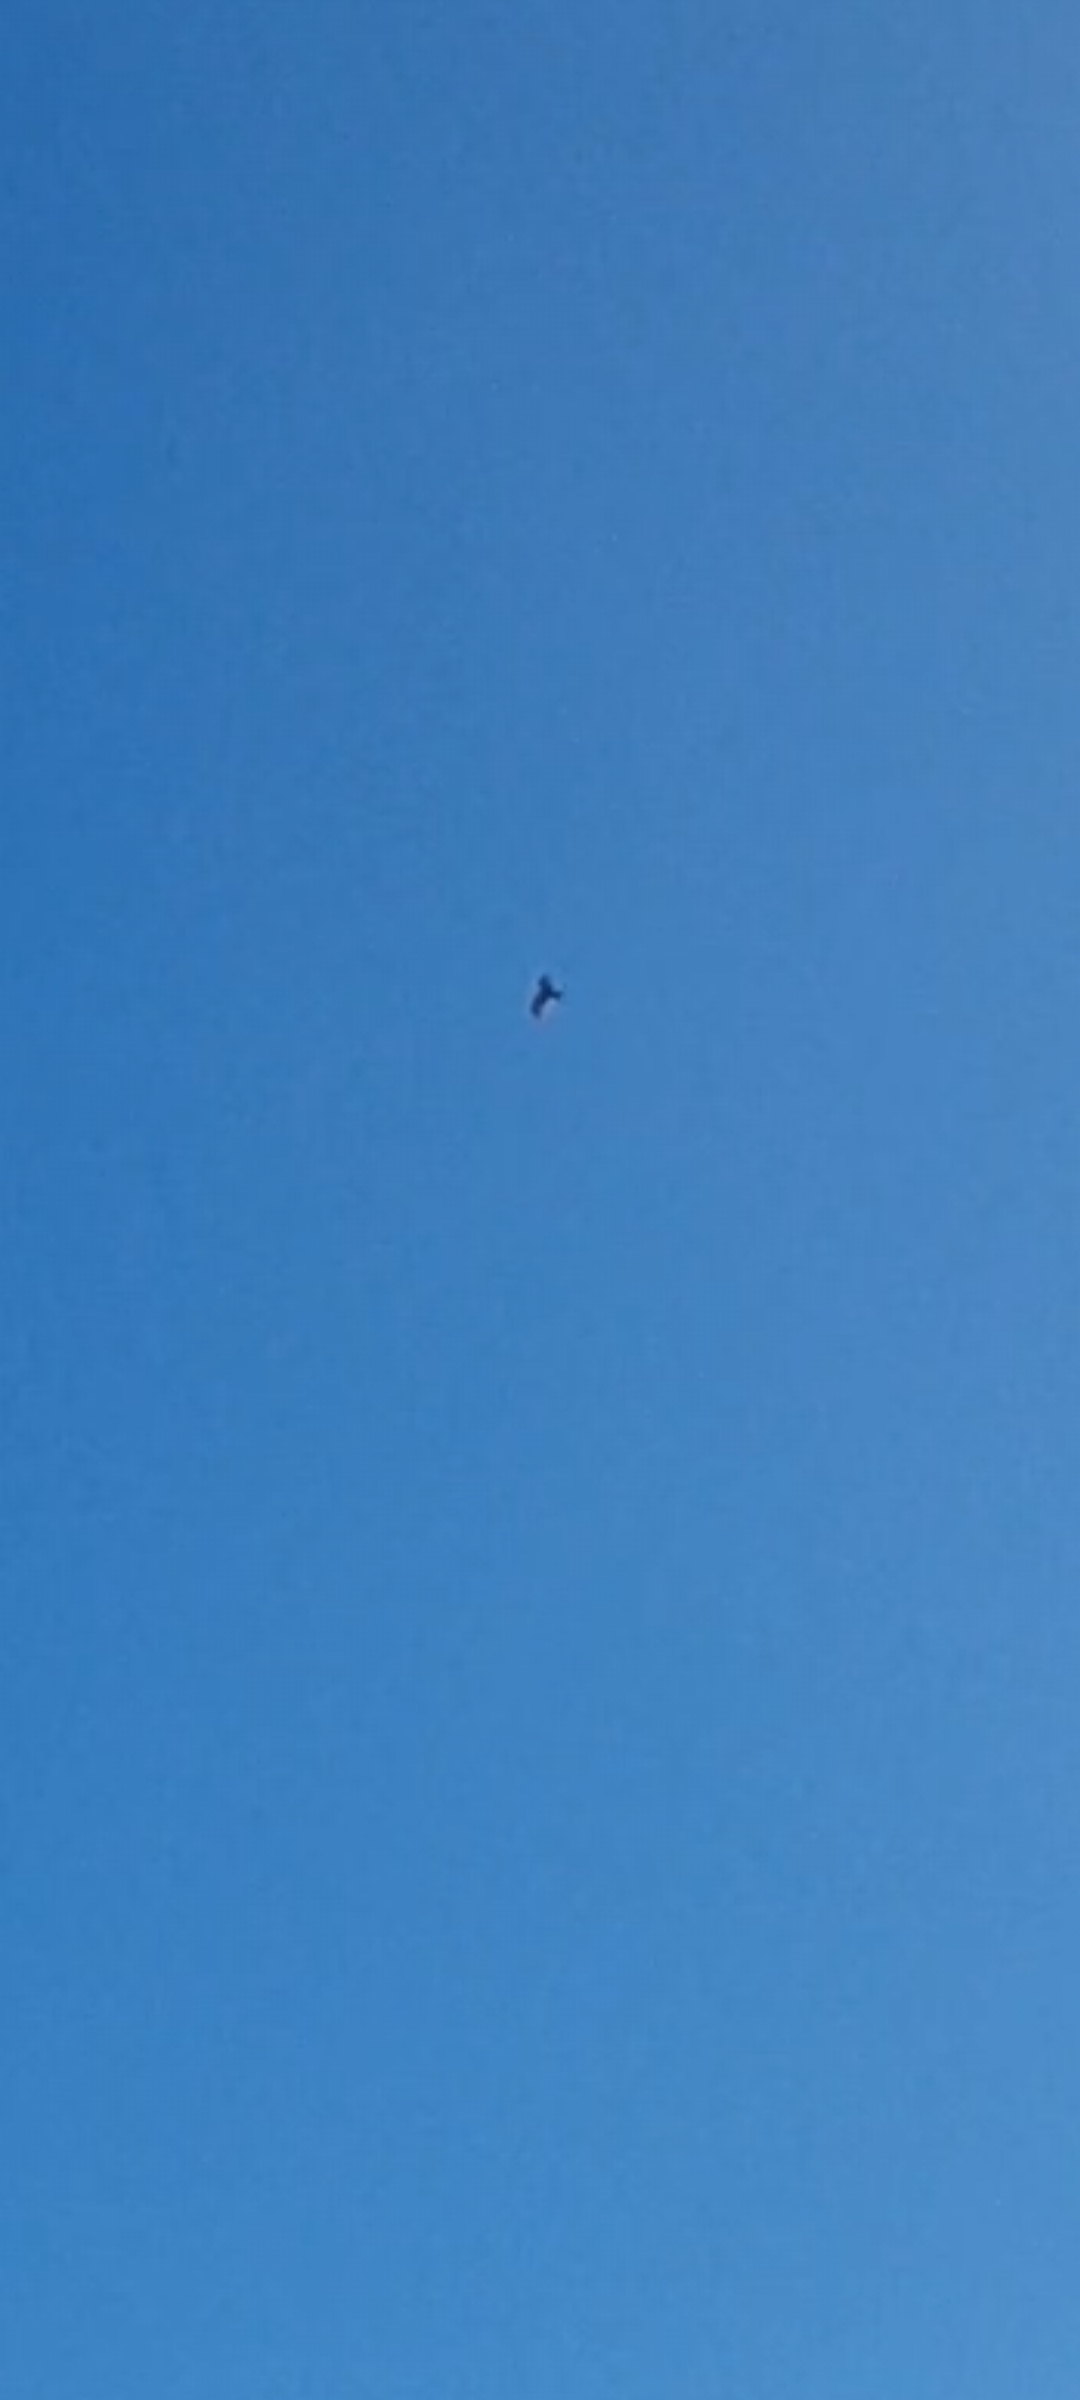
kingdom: Animalia
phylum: Chordata
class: Aves
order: Accipitriformes
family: Accipitridae
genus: Milvus
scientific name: Milvus milvus
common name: Rød glente
